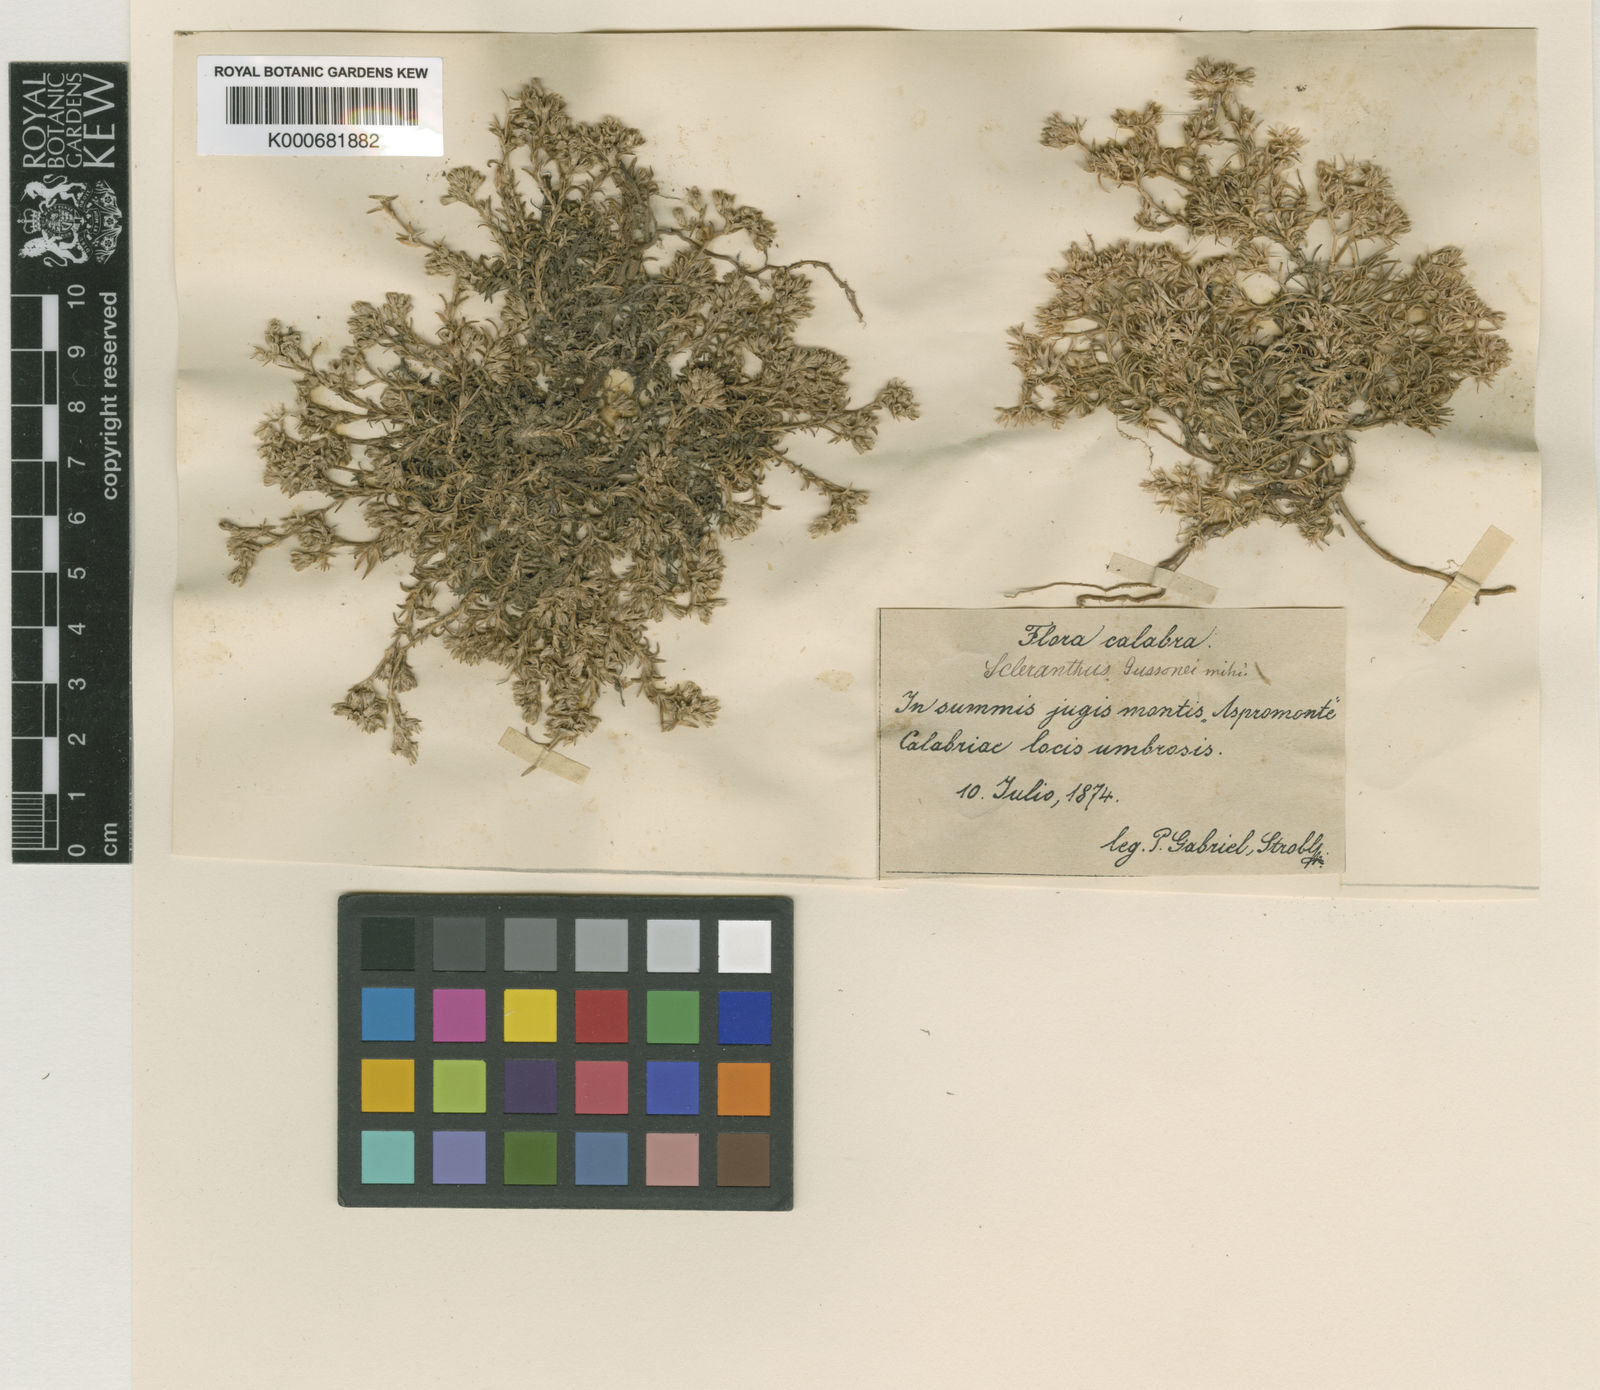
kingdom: Plantae
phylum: Tracheophyta
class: Magnoliopsida
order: Caryophyllales
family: Caryophyllaceae
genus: Scleranthus
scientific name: Scleranthus perennis
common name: Perennial knawel
